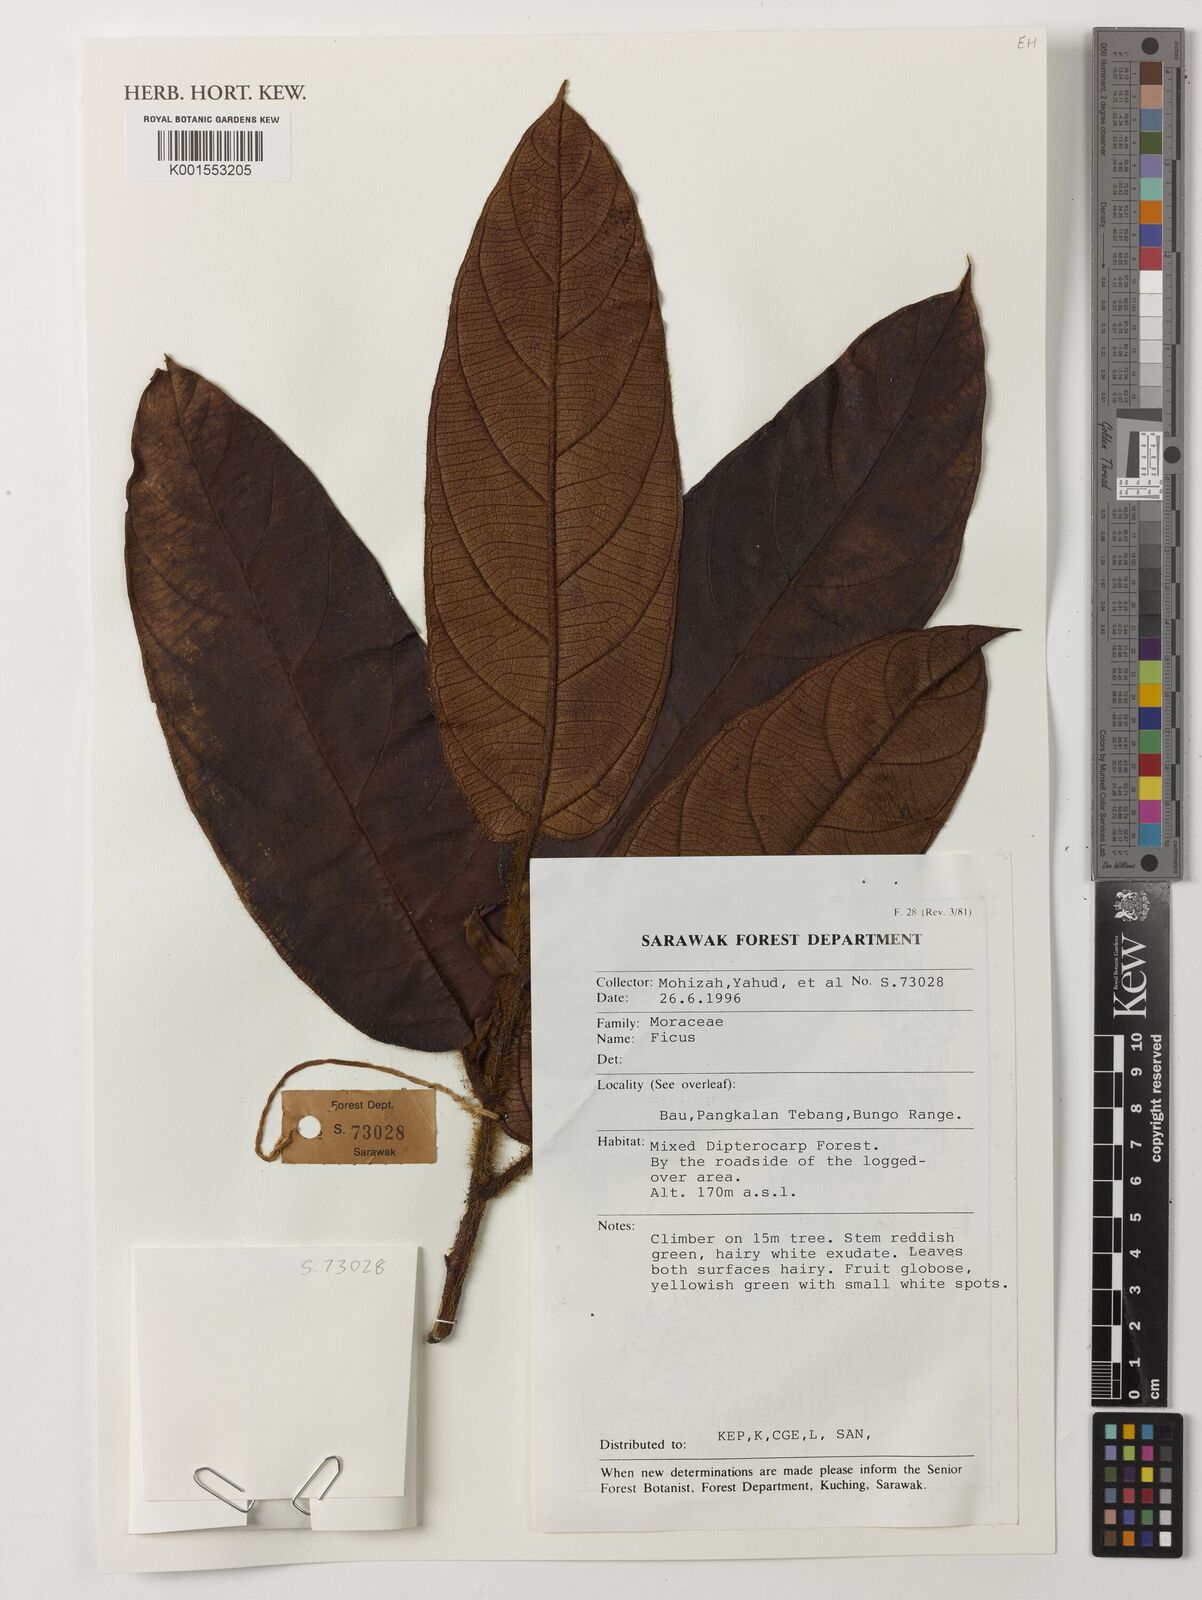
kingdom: Plantae
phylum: Tracheophyta
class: Magnoliopsida
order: Rosales
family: Moraceae
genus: Ficus
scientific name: Ficus
